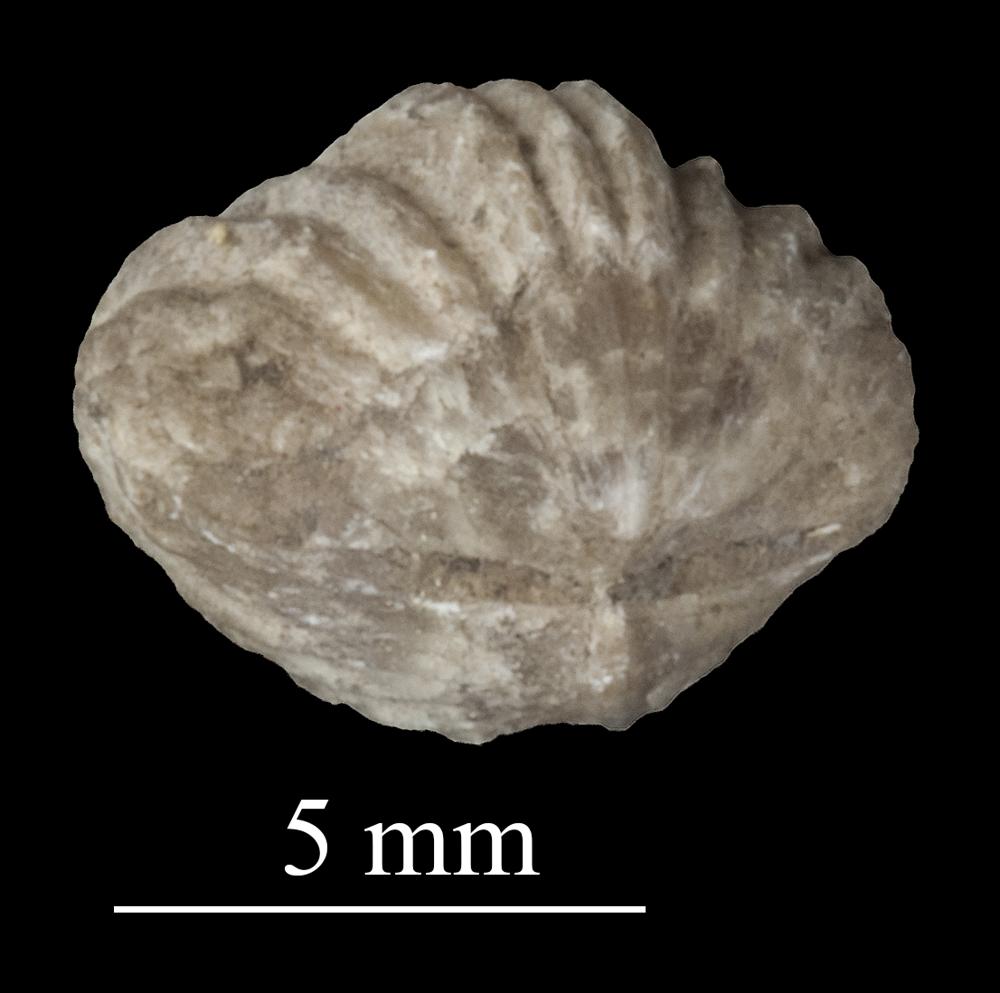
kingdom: Animalia
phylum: Brachiopoda
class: Rhynchonellata
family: Plectorthidae
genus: Platystrophia
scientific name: Platystrophia dentata
